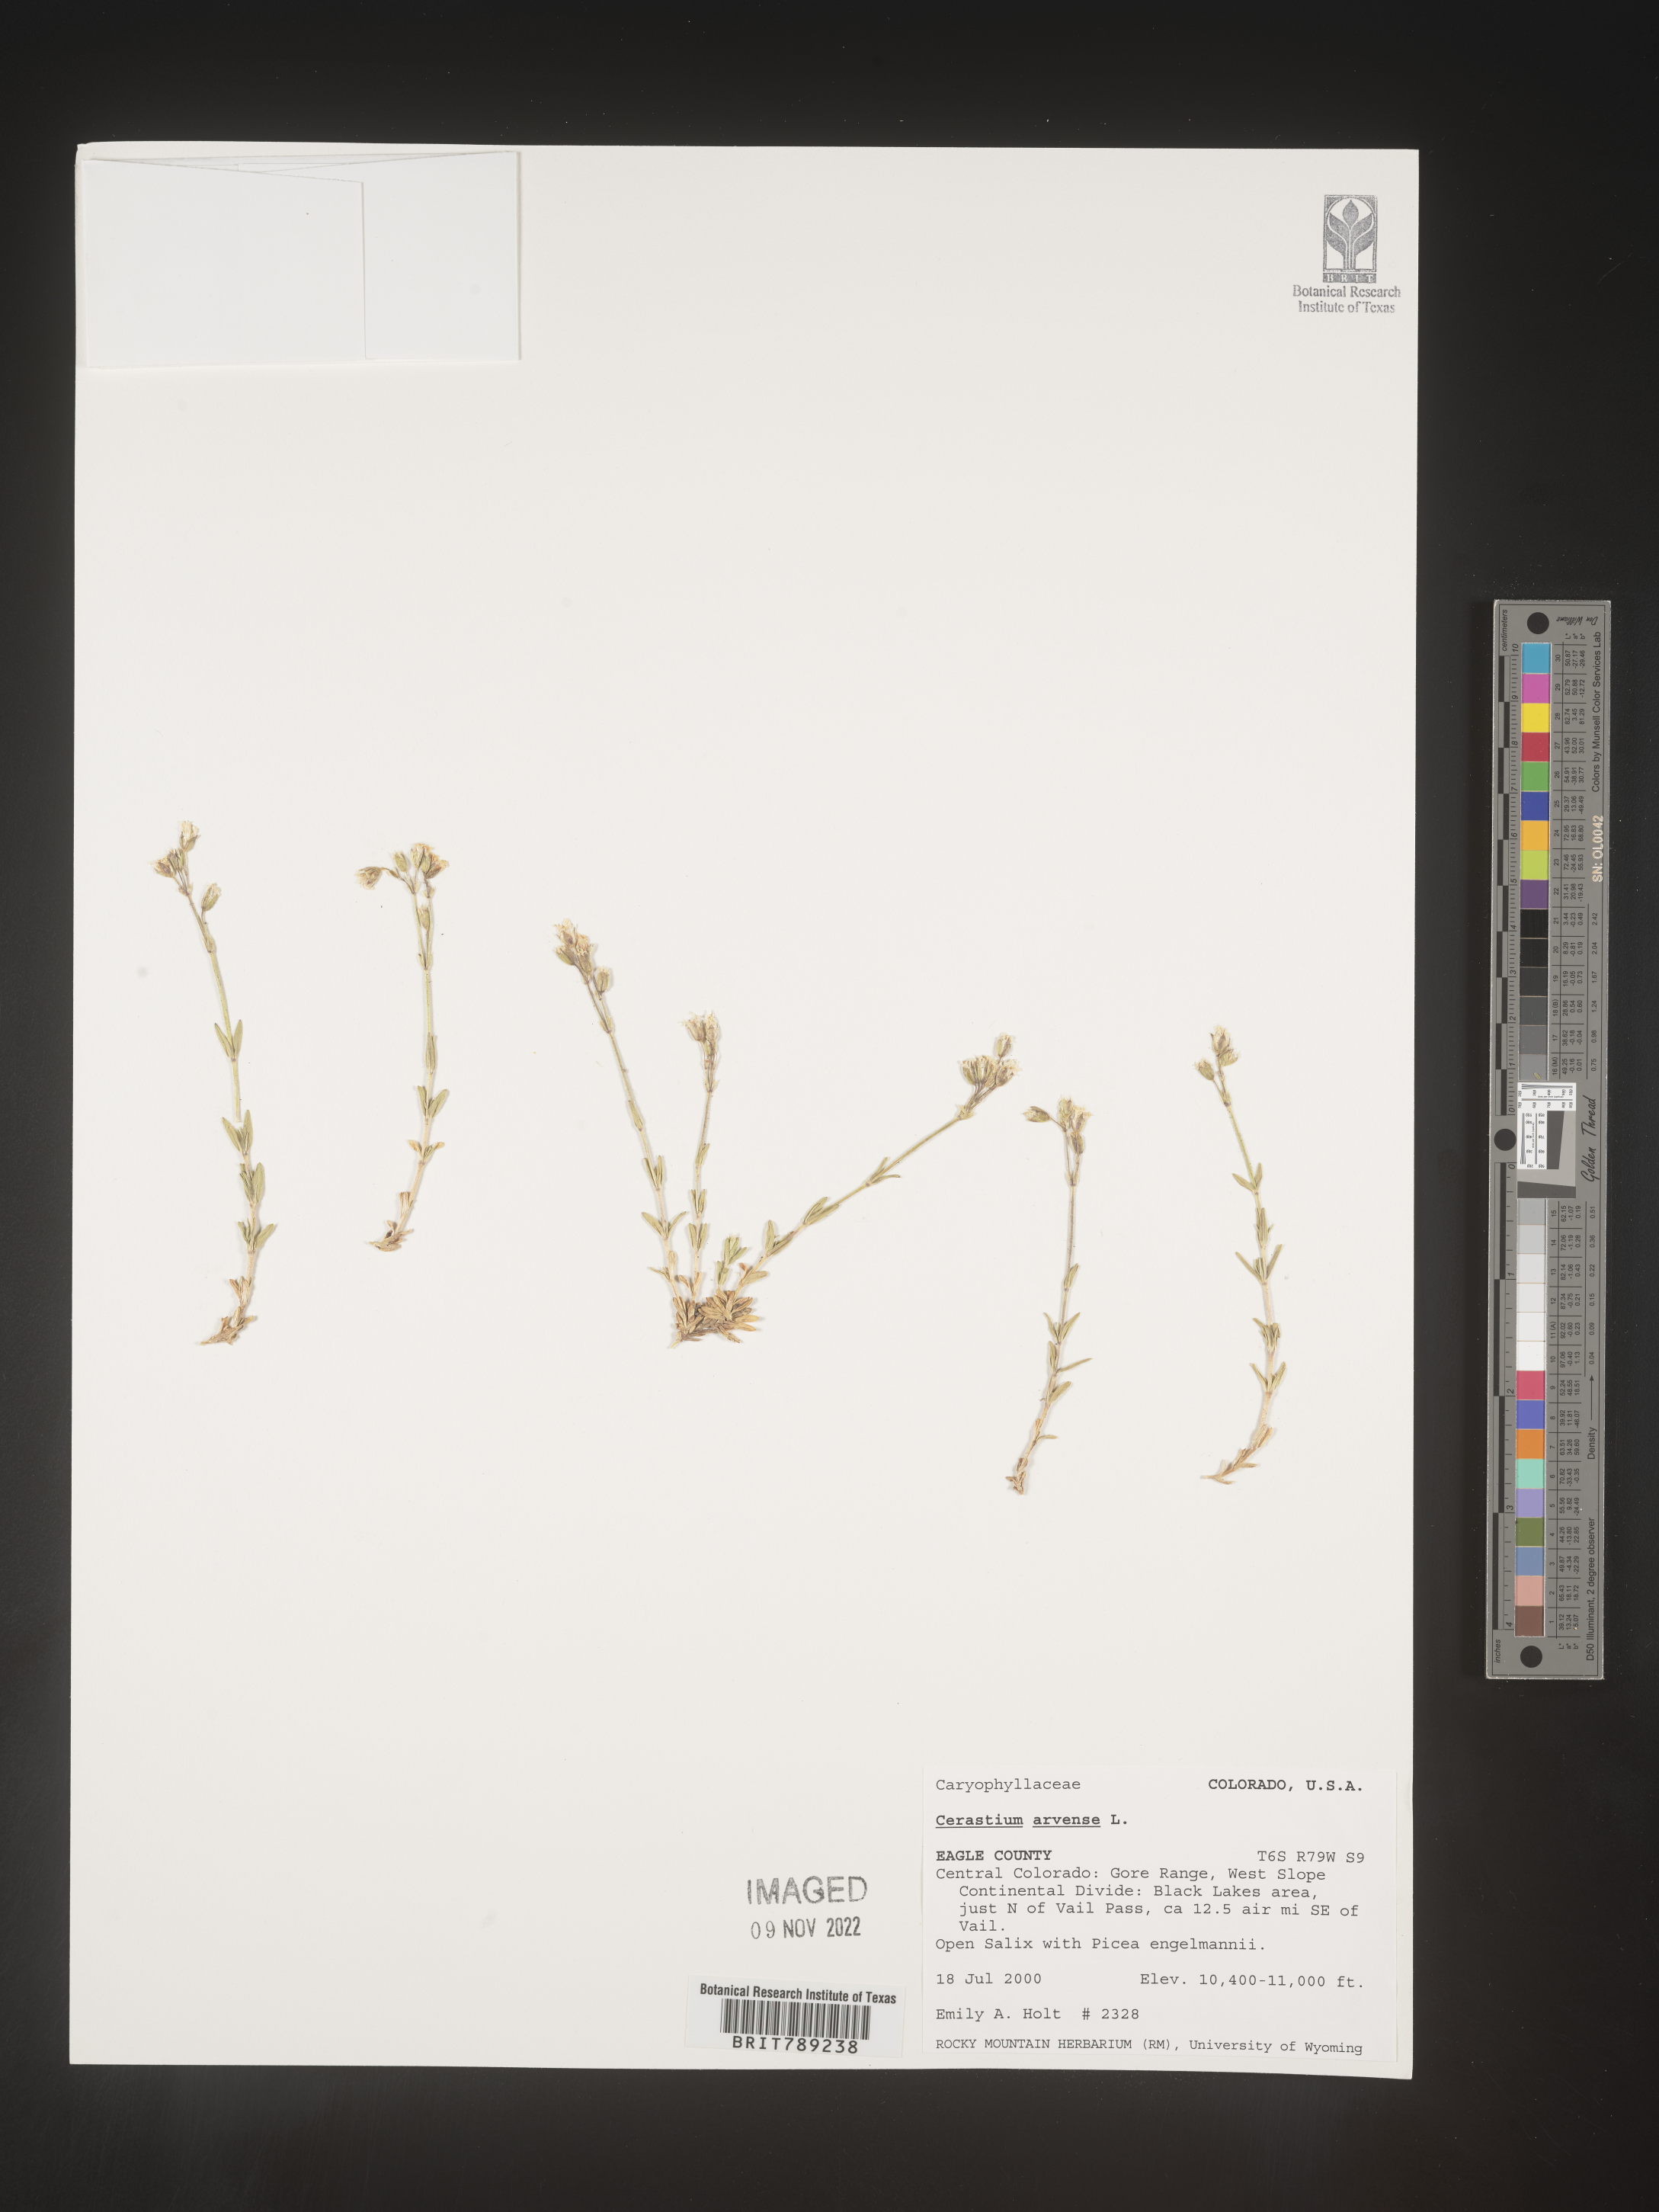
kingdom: Plantae
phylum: Tracheophyta
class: Magnoliopsida
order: Caryophyllales
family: Caryophyllaceae
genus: Cerastium
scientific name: Cerastium arvense
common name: Field mouse-ear
